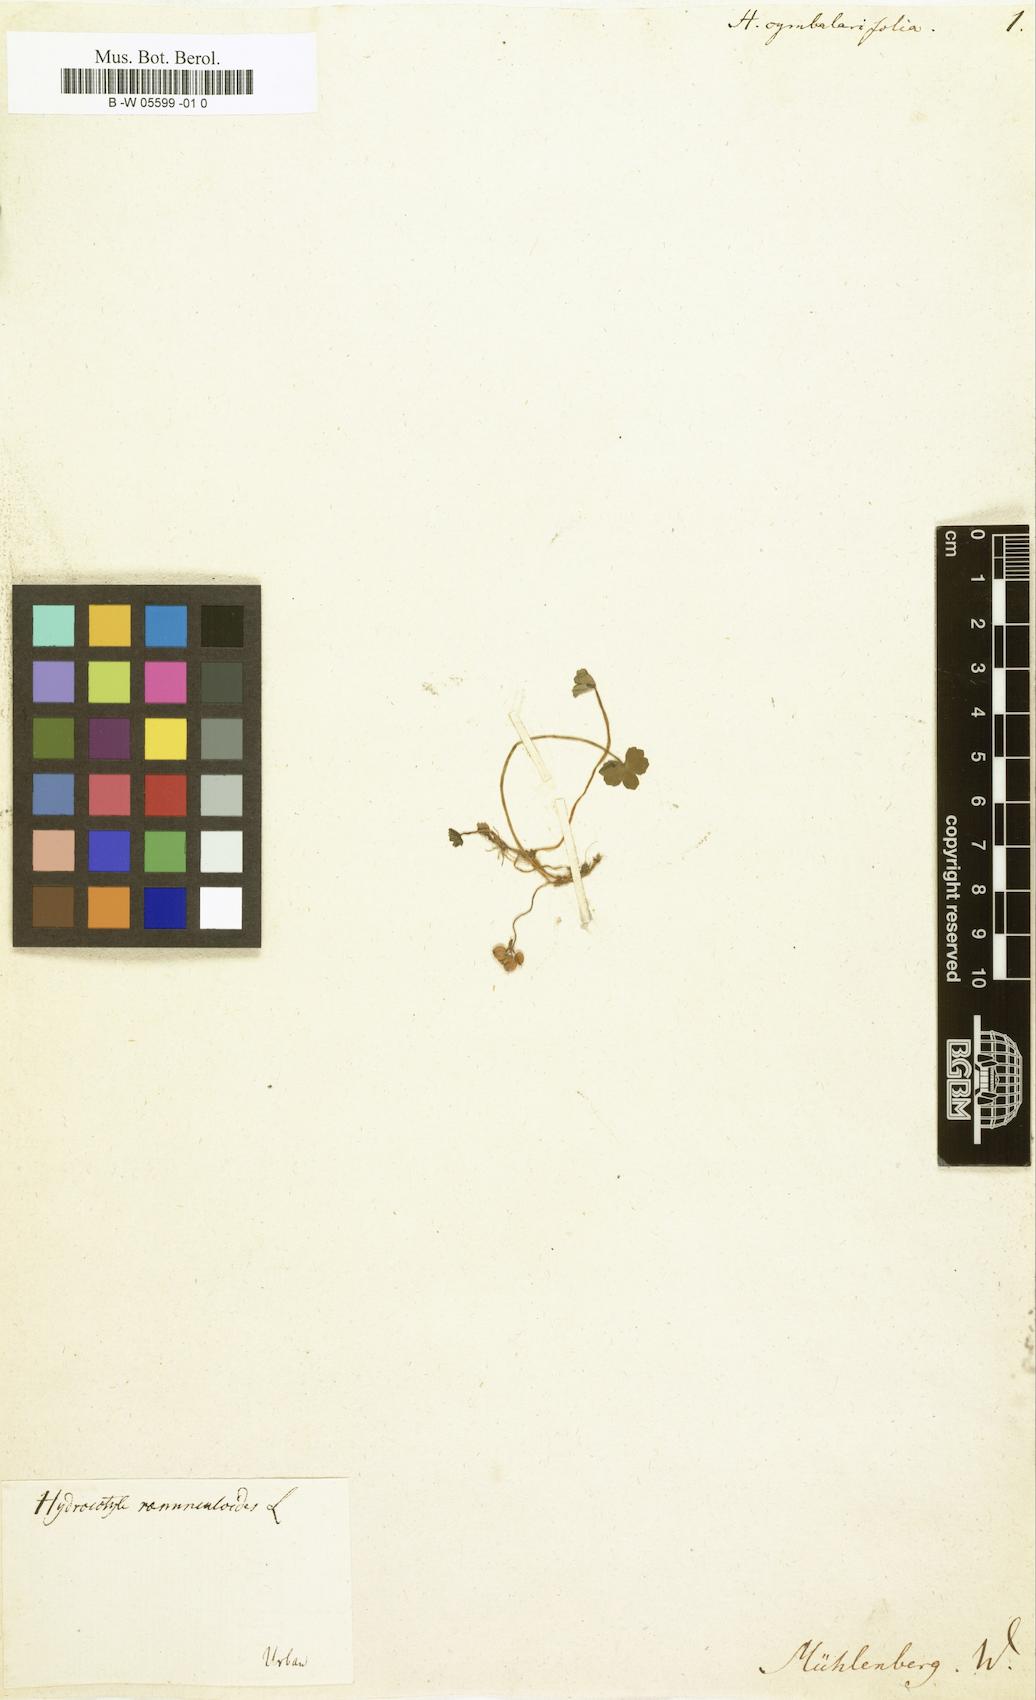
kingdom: Plantae
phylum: Tracheophyta
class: Magnoliopsida
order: Apiales
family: Araliaceae
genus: Hydrocotyle
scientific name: Hydrocotyle ranunculoides
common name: Floating pennywort
